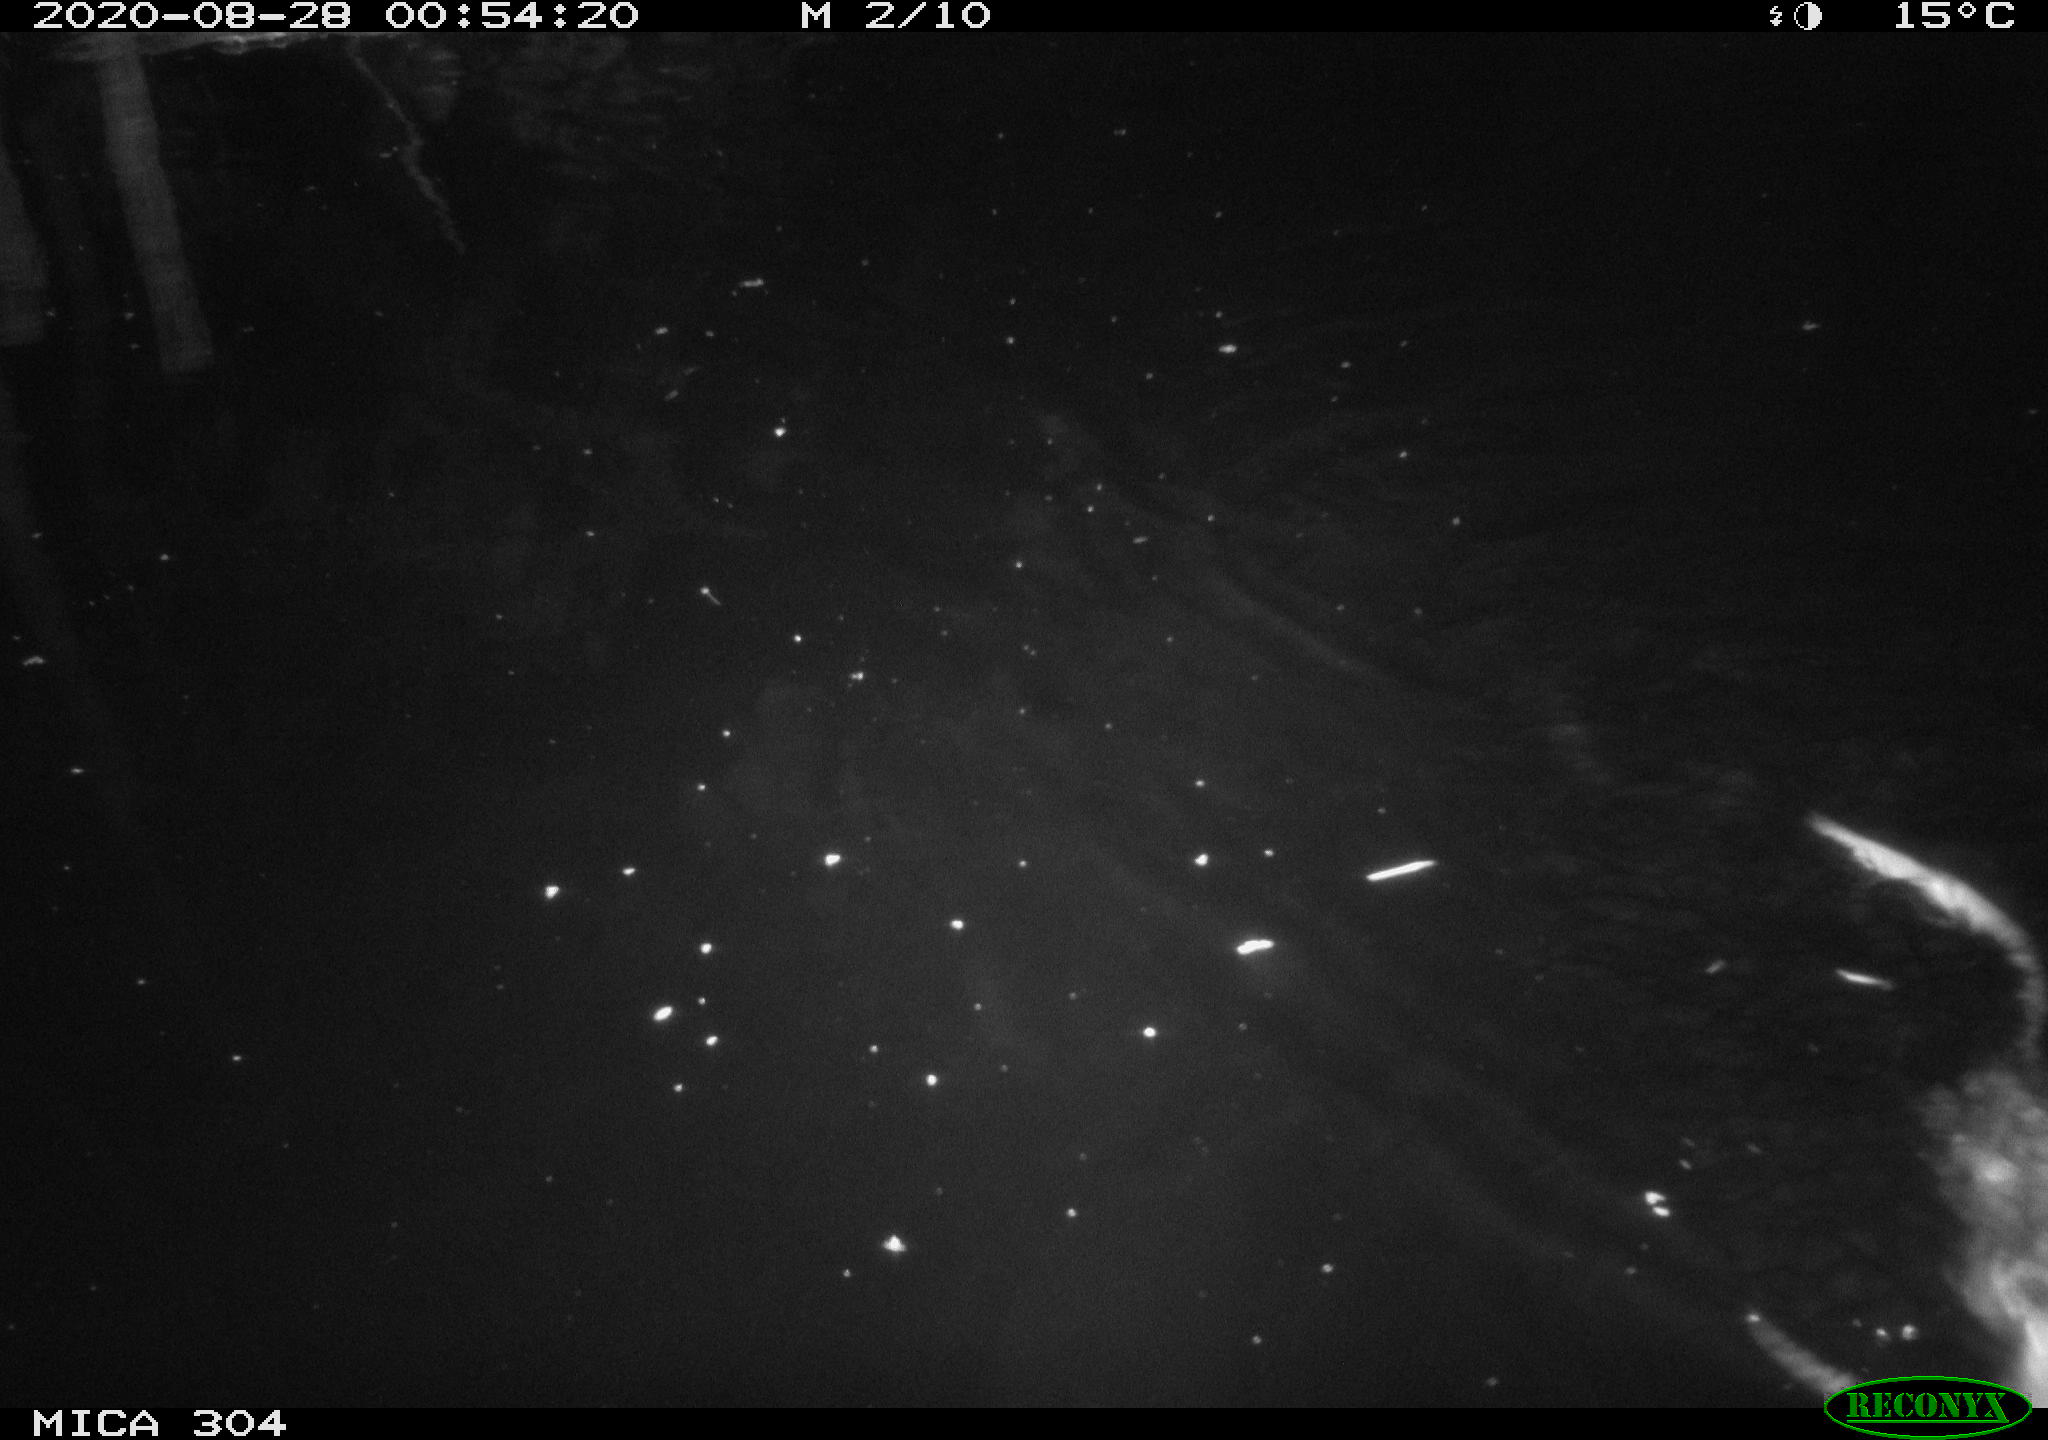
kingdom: Animalia
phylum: Chordata
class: Mammalia
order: Rodentia
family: Cricetidae
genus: Ondatra
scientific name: Ondatra zibethicus
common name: Muskrat
